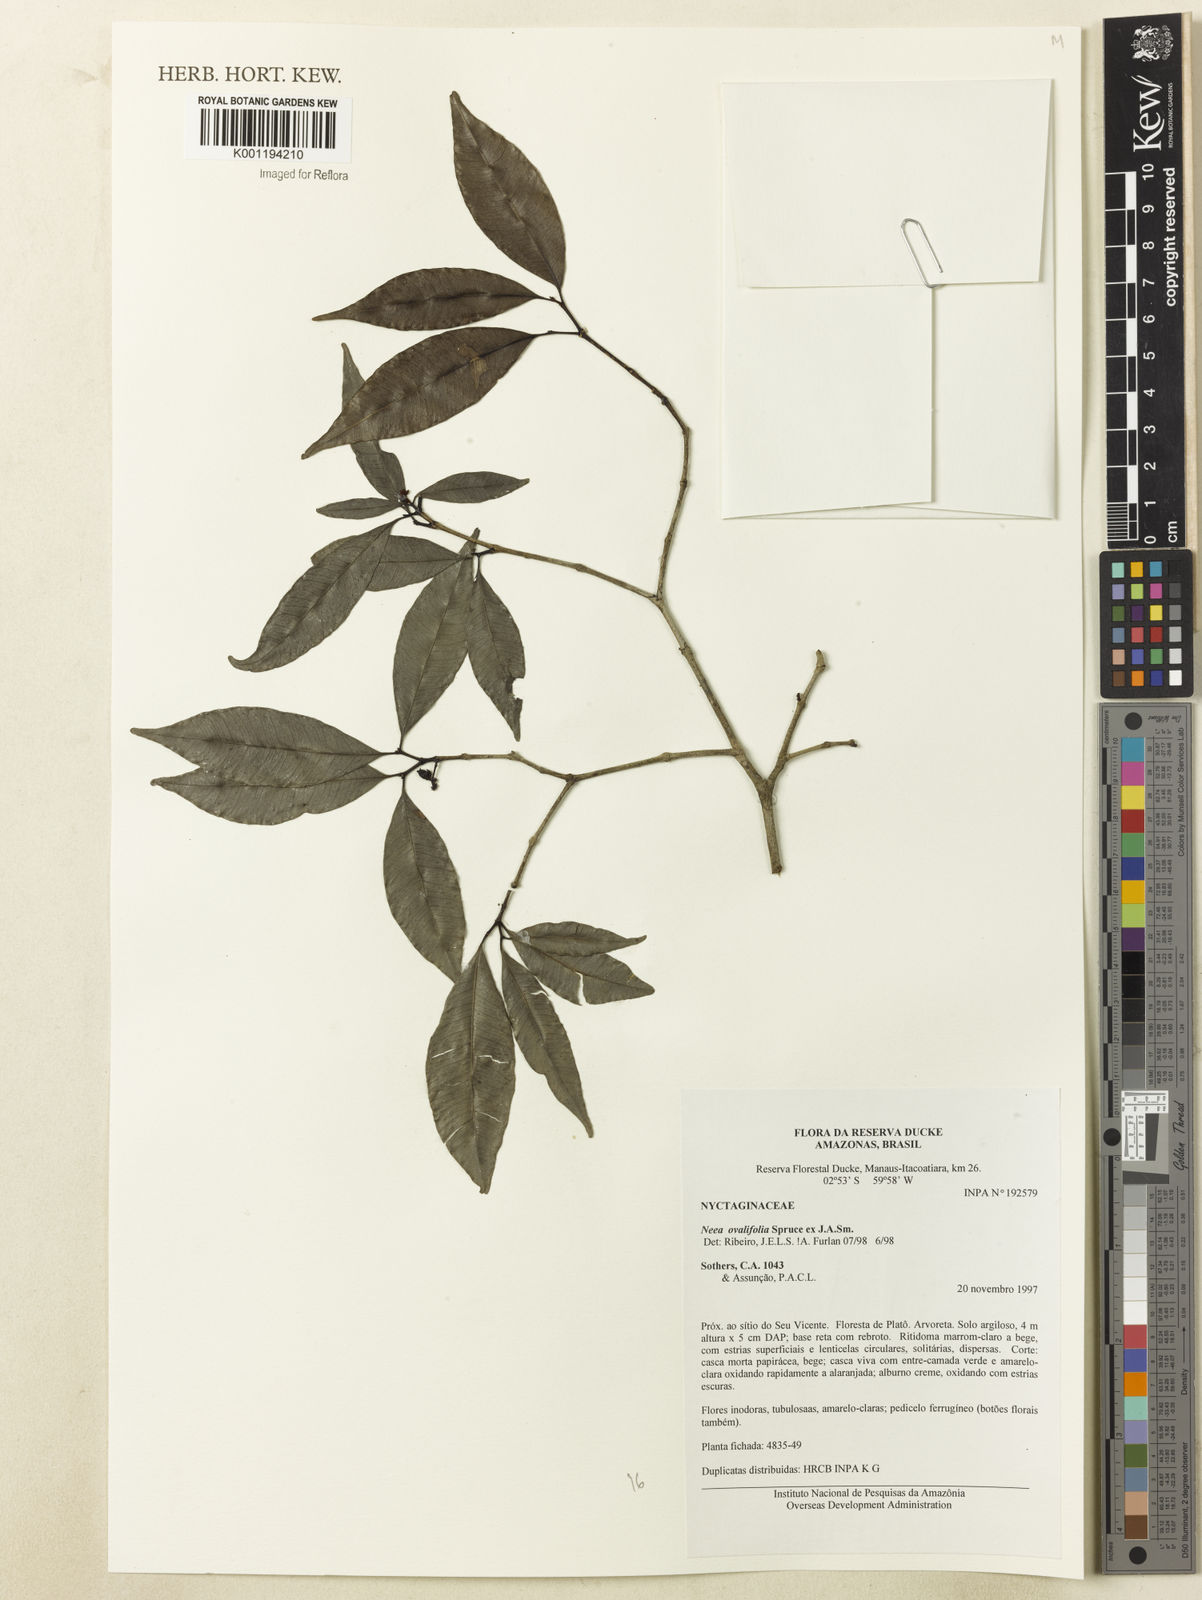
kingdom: Plantae
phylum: Tracheophyta
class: Magnoliopsida
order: Caryophyllales
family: Nyctaginaceae
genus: Neea
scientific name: Neea ovalifolia
